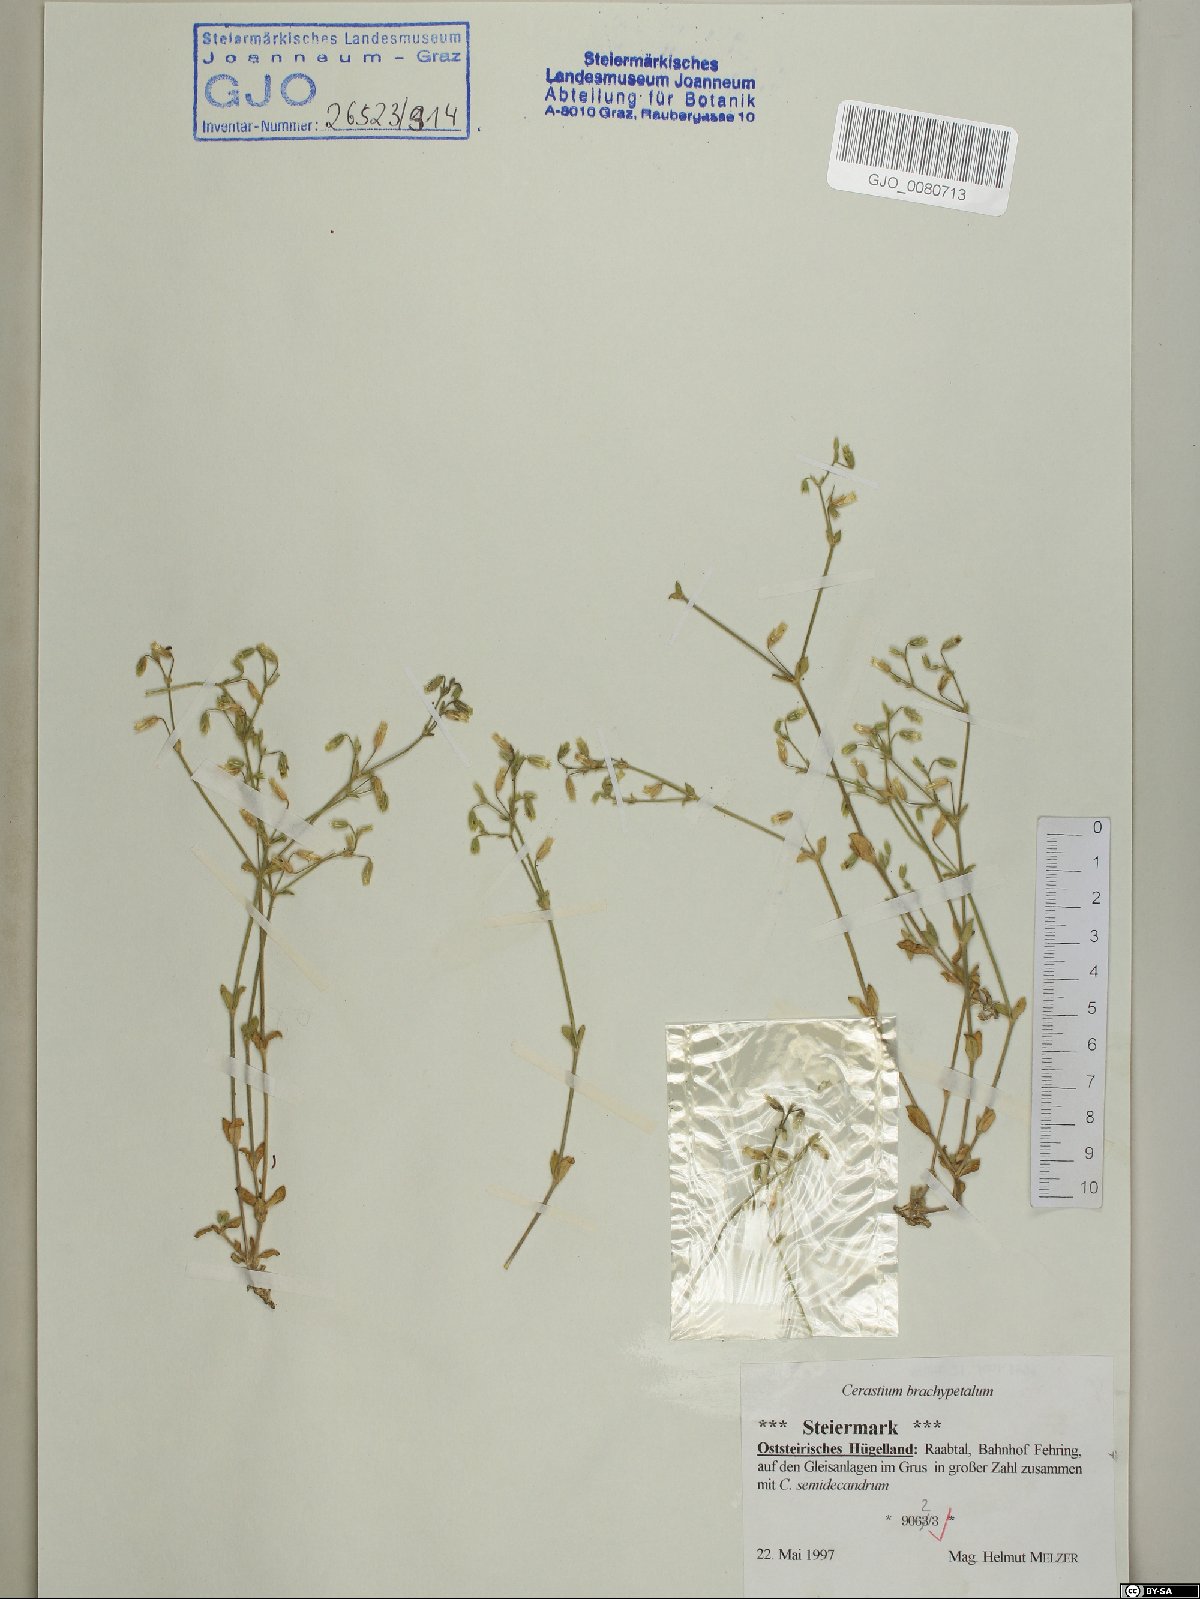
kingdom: Plantae
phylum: Tracheophyta
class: Magnoliopsida
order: Caryophyllales
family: Caryophyllaceae
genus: Cerastium
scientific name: Cerastium brachypetalum
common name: Grey mouse-ear
